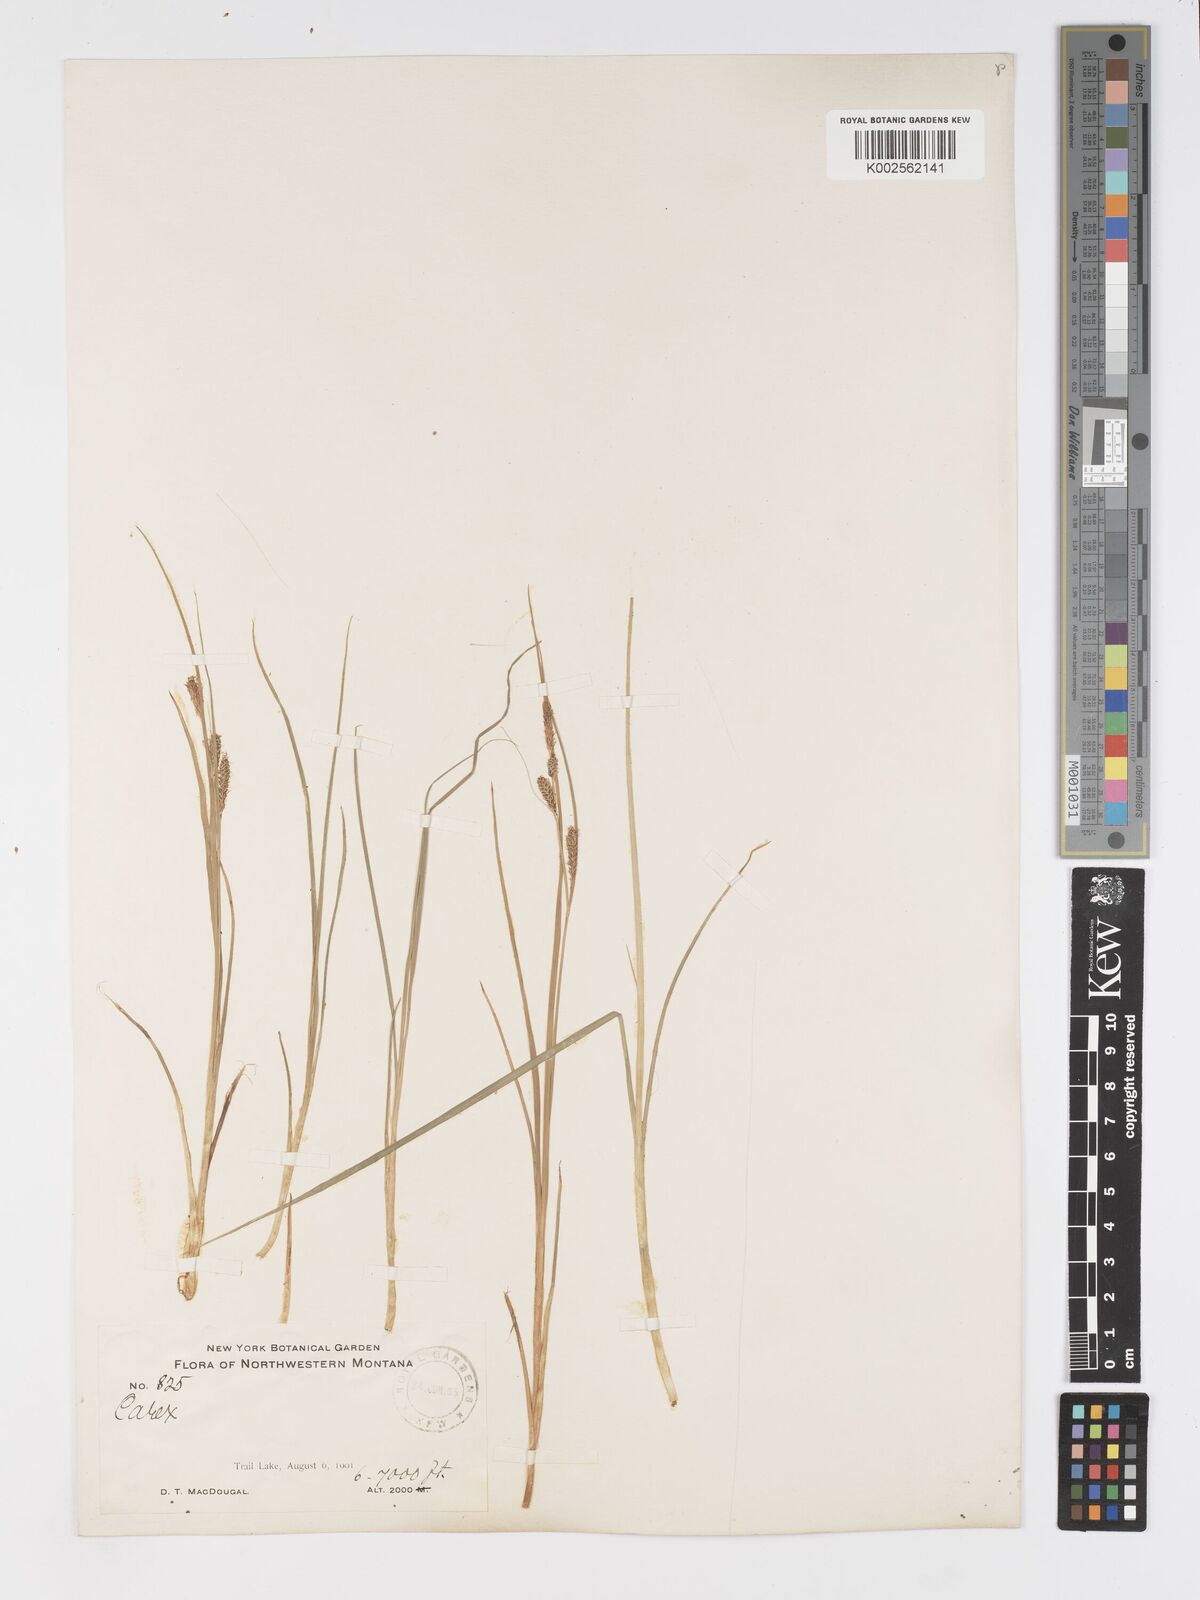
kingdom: Plantae
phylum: Tracheophyta
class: Liliopsida
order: Poales
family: Cyperaceae
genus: Carex
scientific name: Carex kelloggii
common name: Kellogg's sedge
